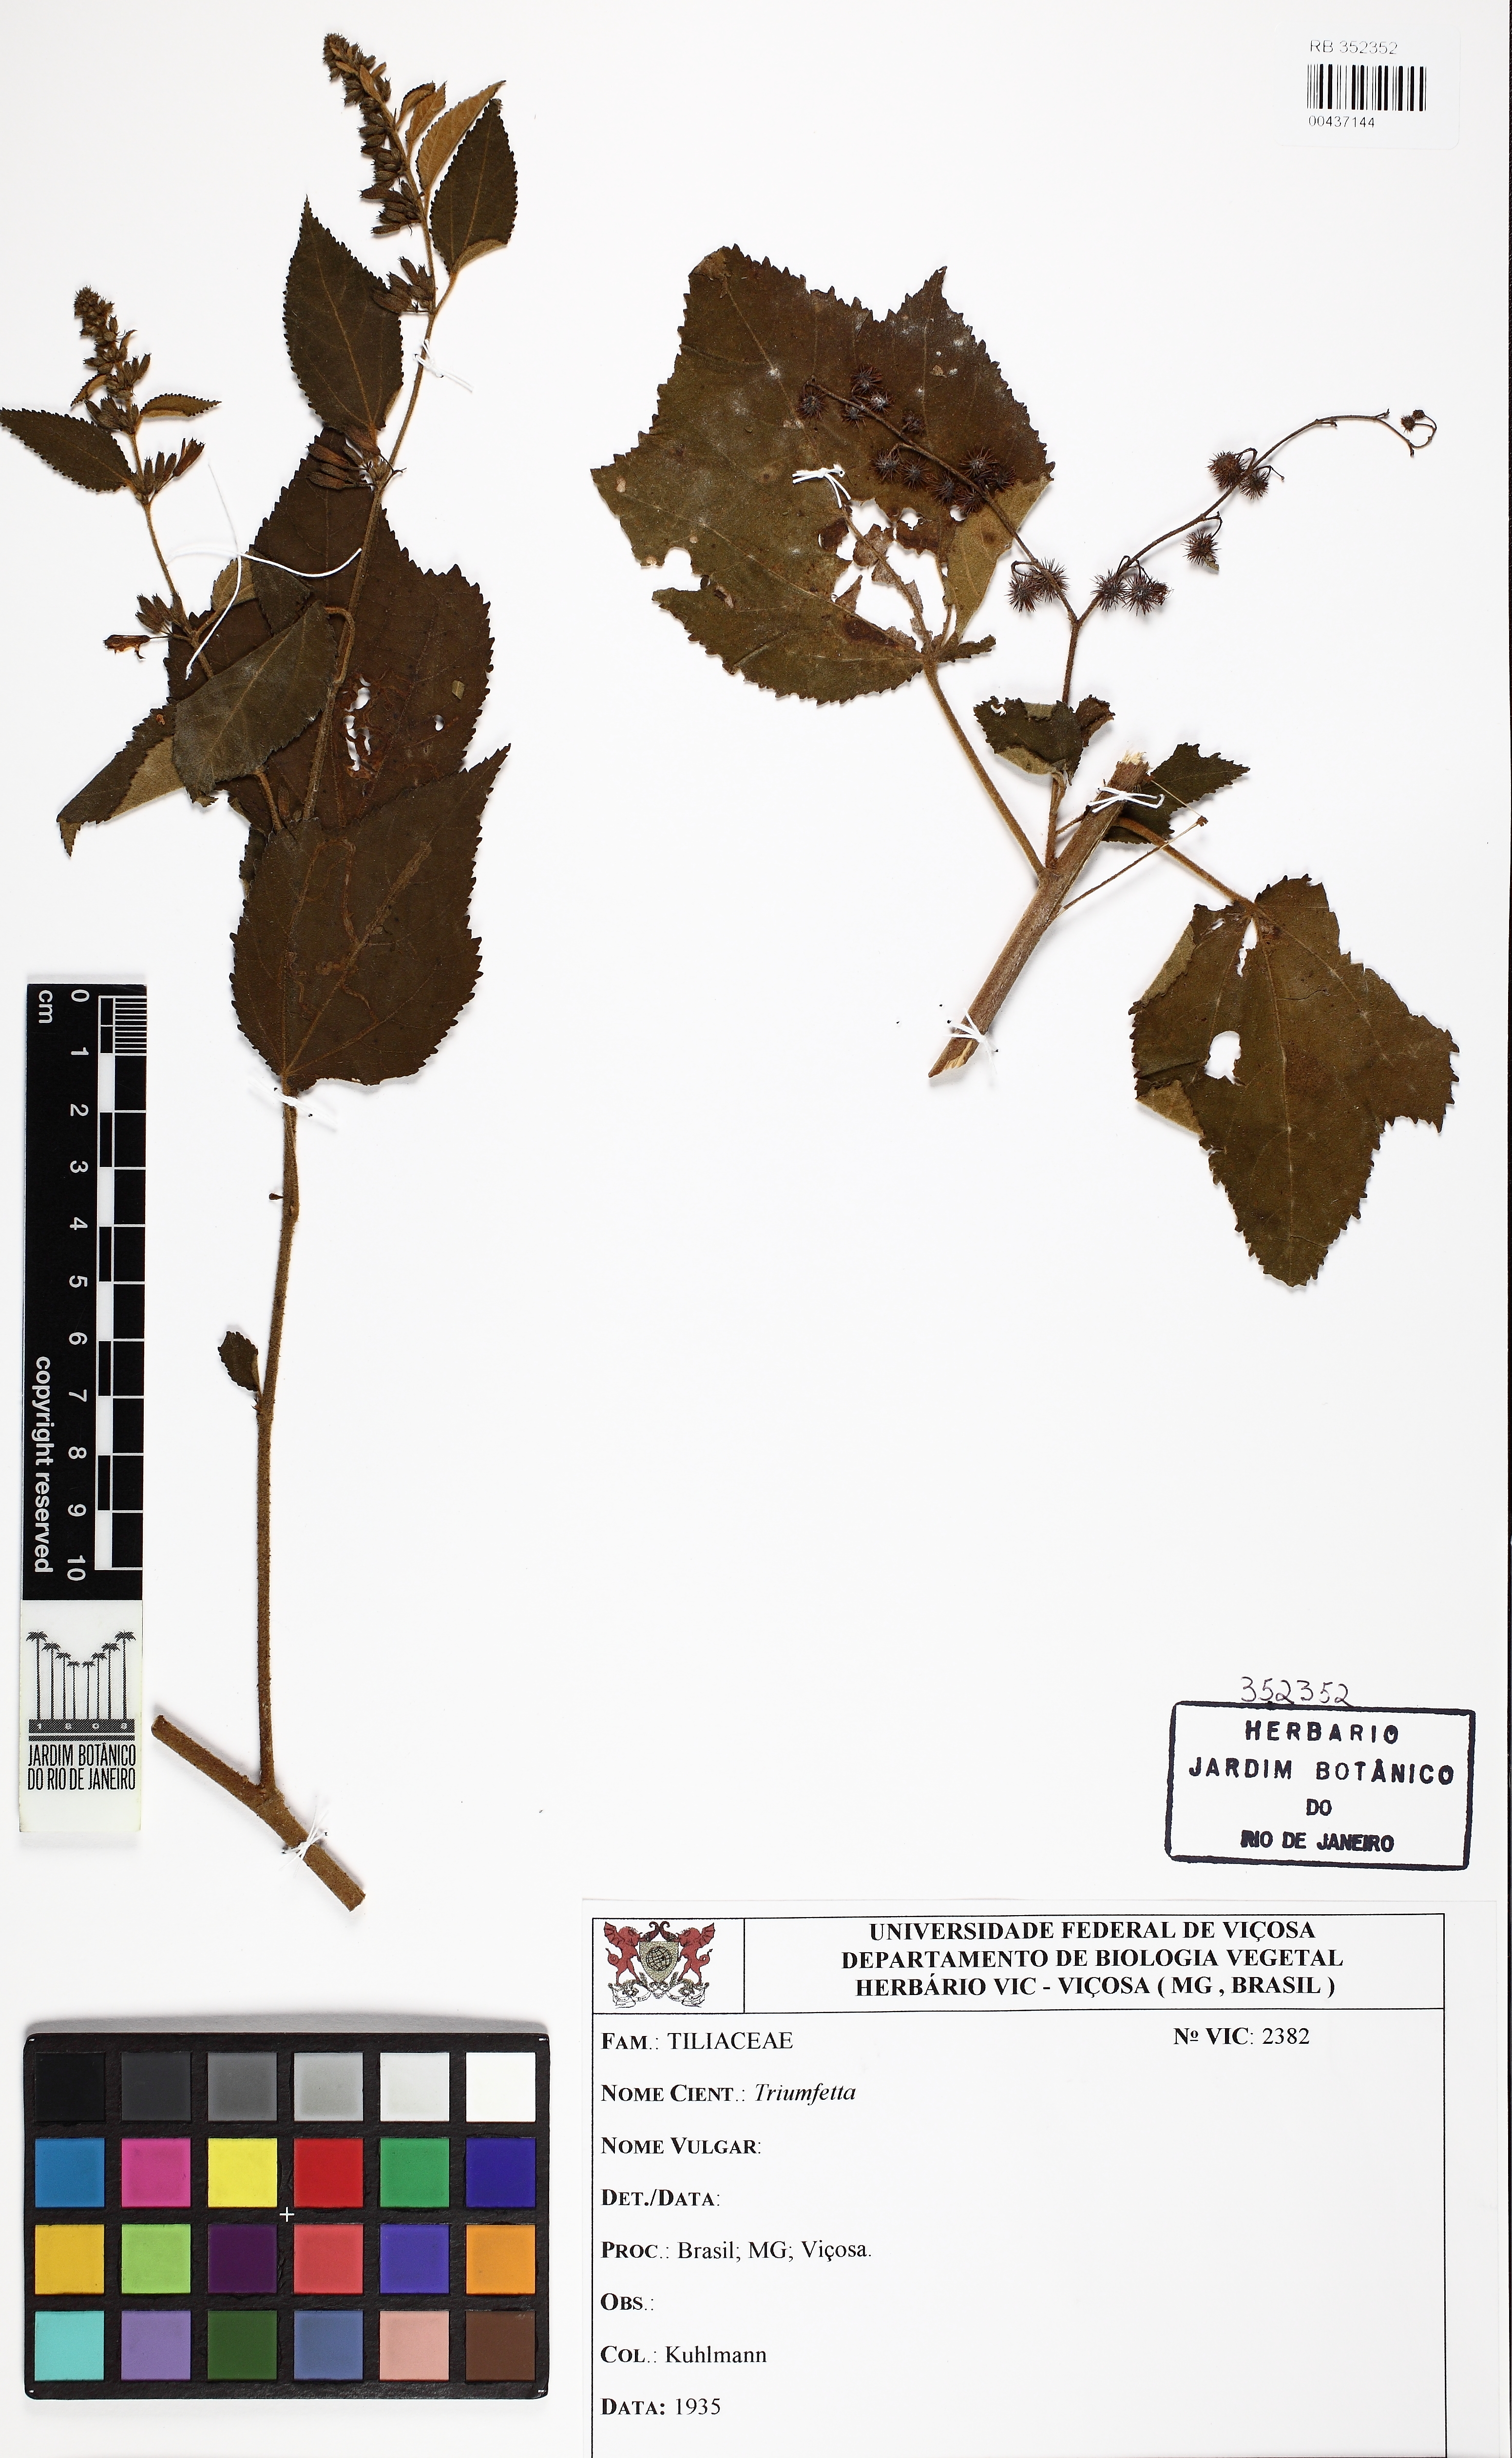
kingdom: Plantae
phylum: Tracheophyta
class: Magnoliopsida
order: Malvales
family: Malvaceae
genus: Triumfetta
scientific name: Triumfetta
